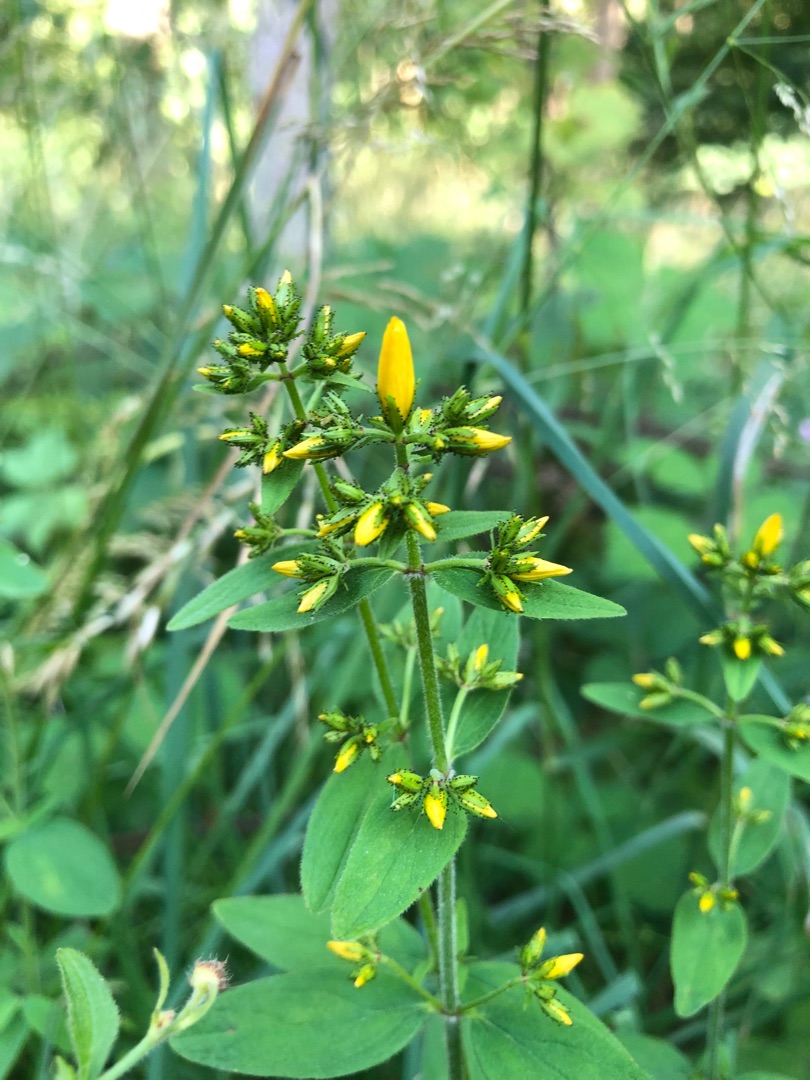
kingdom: Plantae
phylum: Tracheophyta
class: Magnoliopsida
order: Malpighiales
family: Hypericaceae
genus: Hypericum
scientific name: Hypericum hirsutum
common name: Lådden perikon
